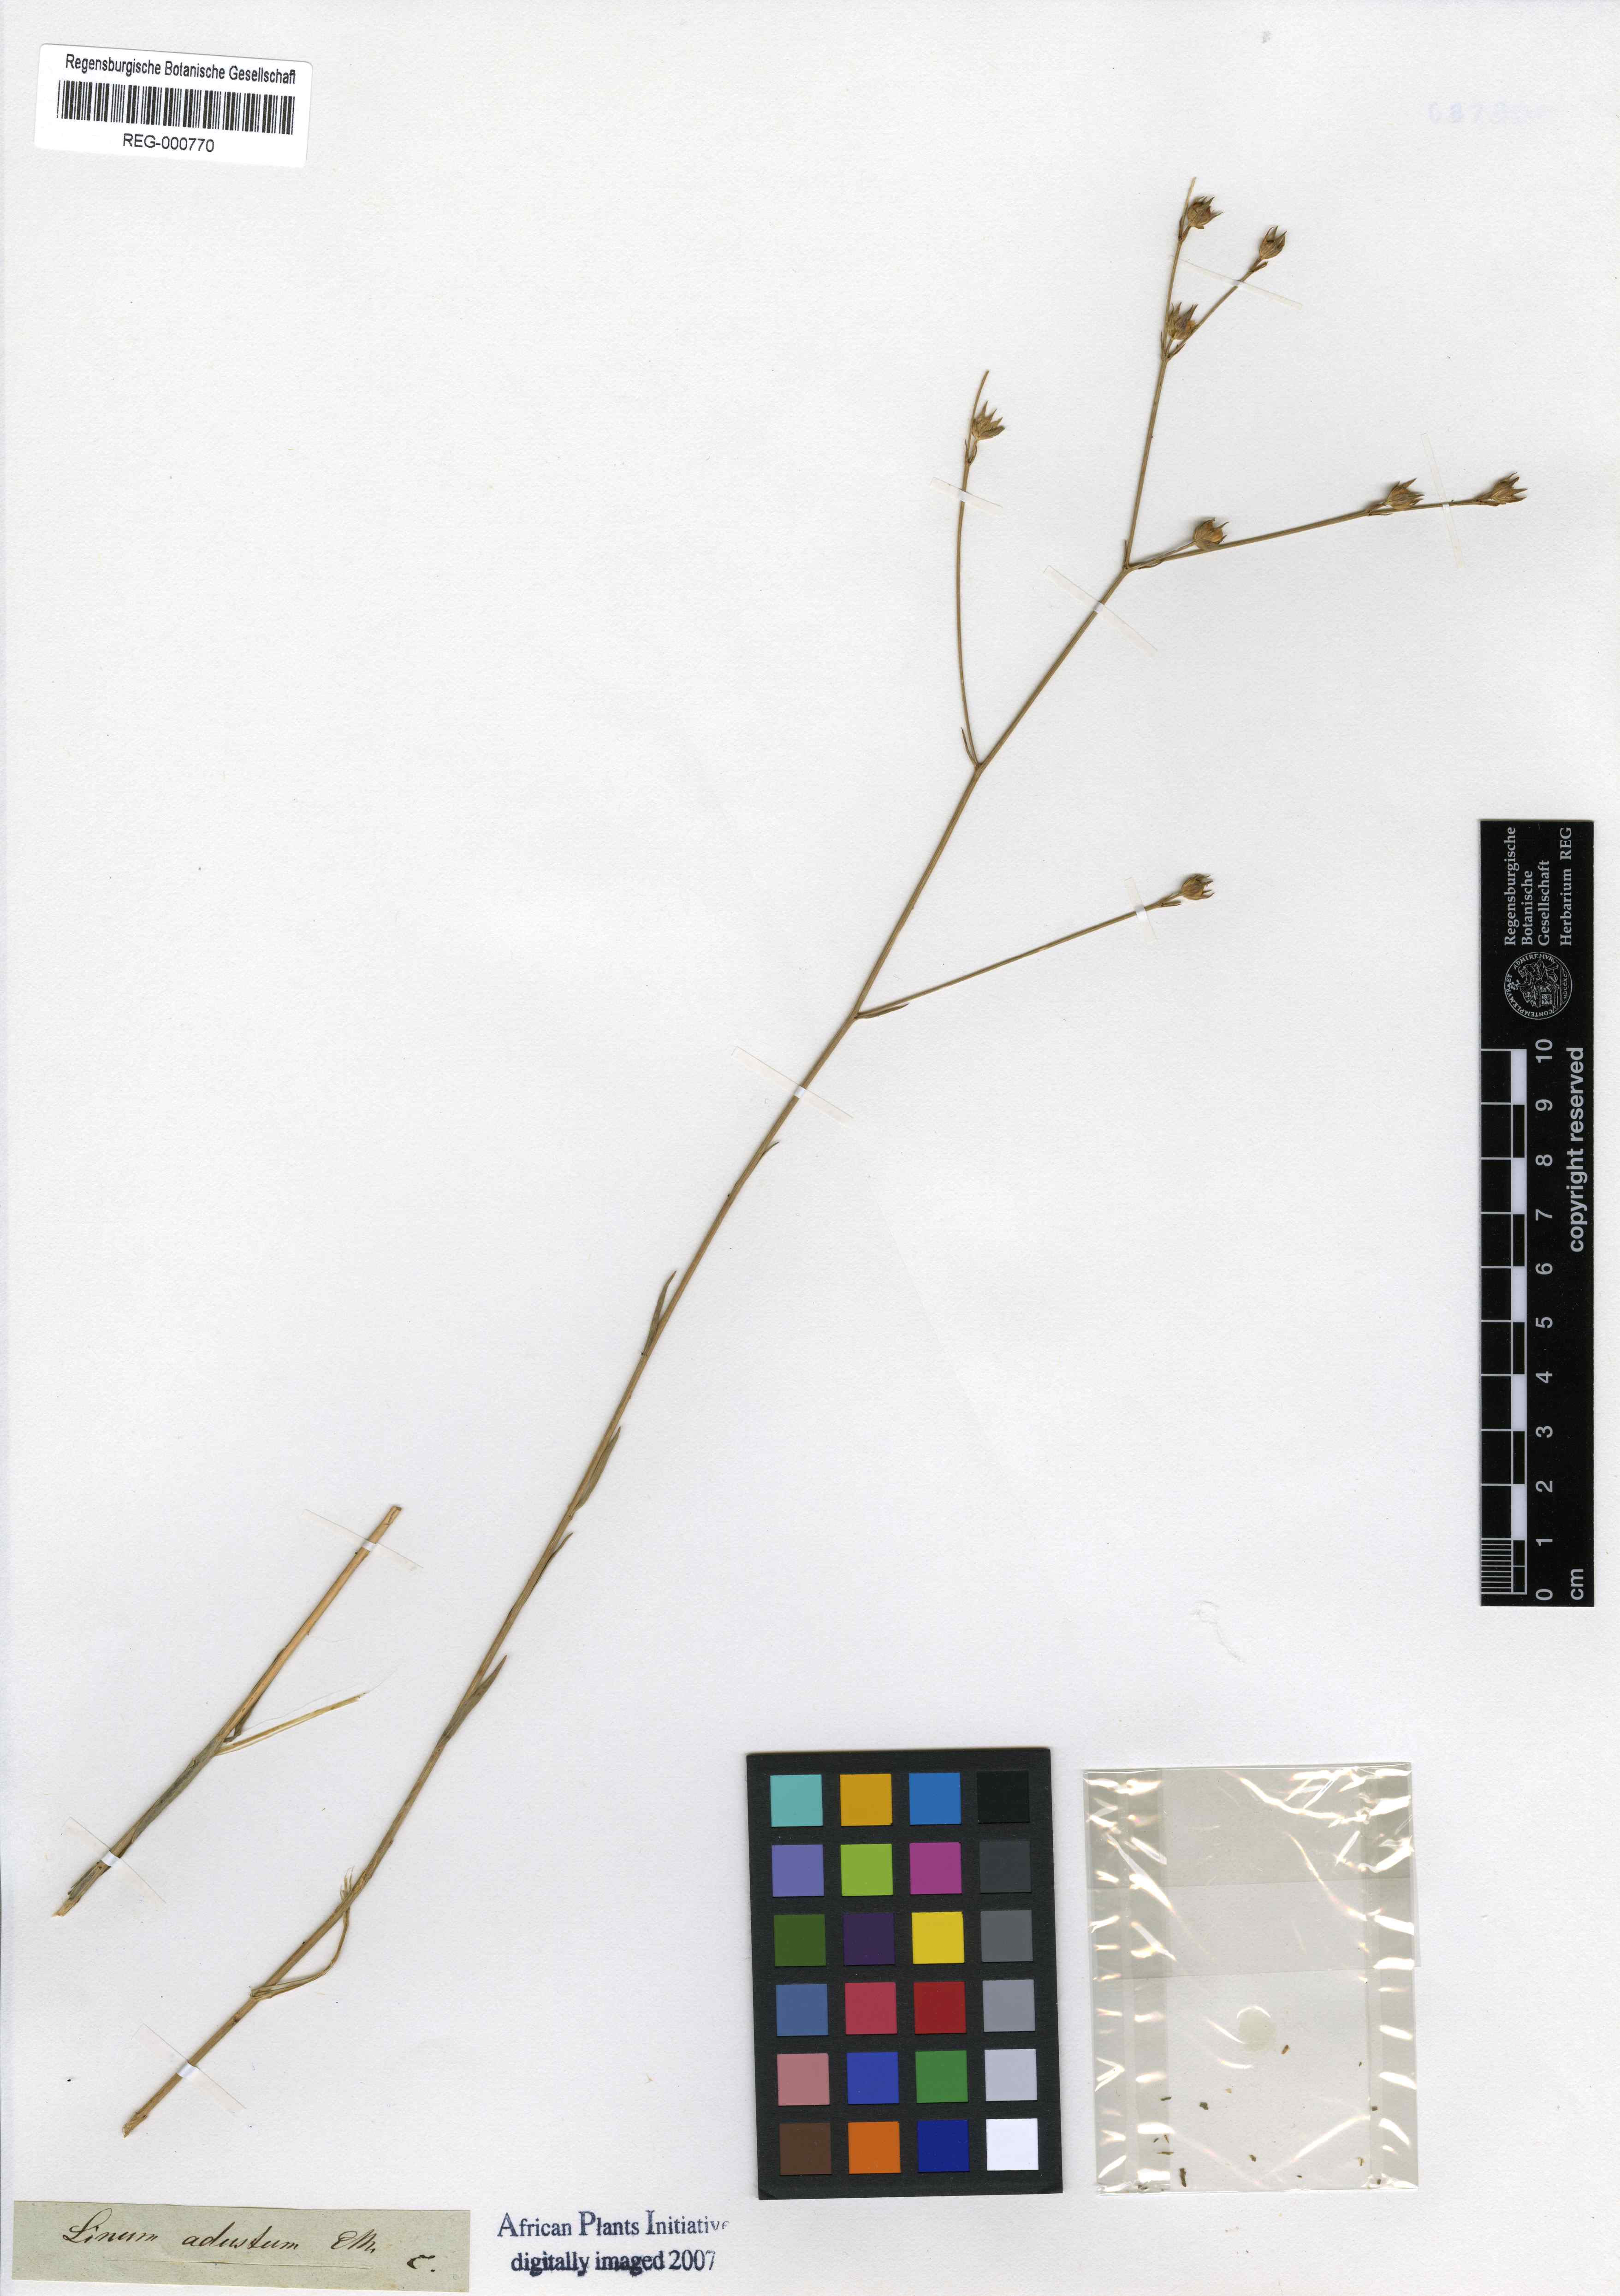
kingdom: Plantae
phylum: Tracheophyta
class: Magnoliopsida
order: Malpighiales
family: Linaceae
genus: Linum
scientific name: Linum adustum
